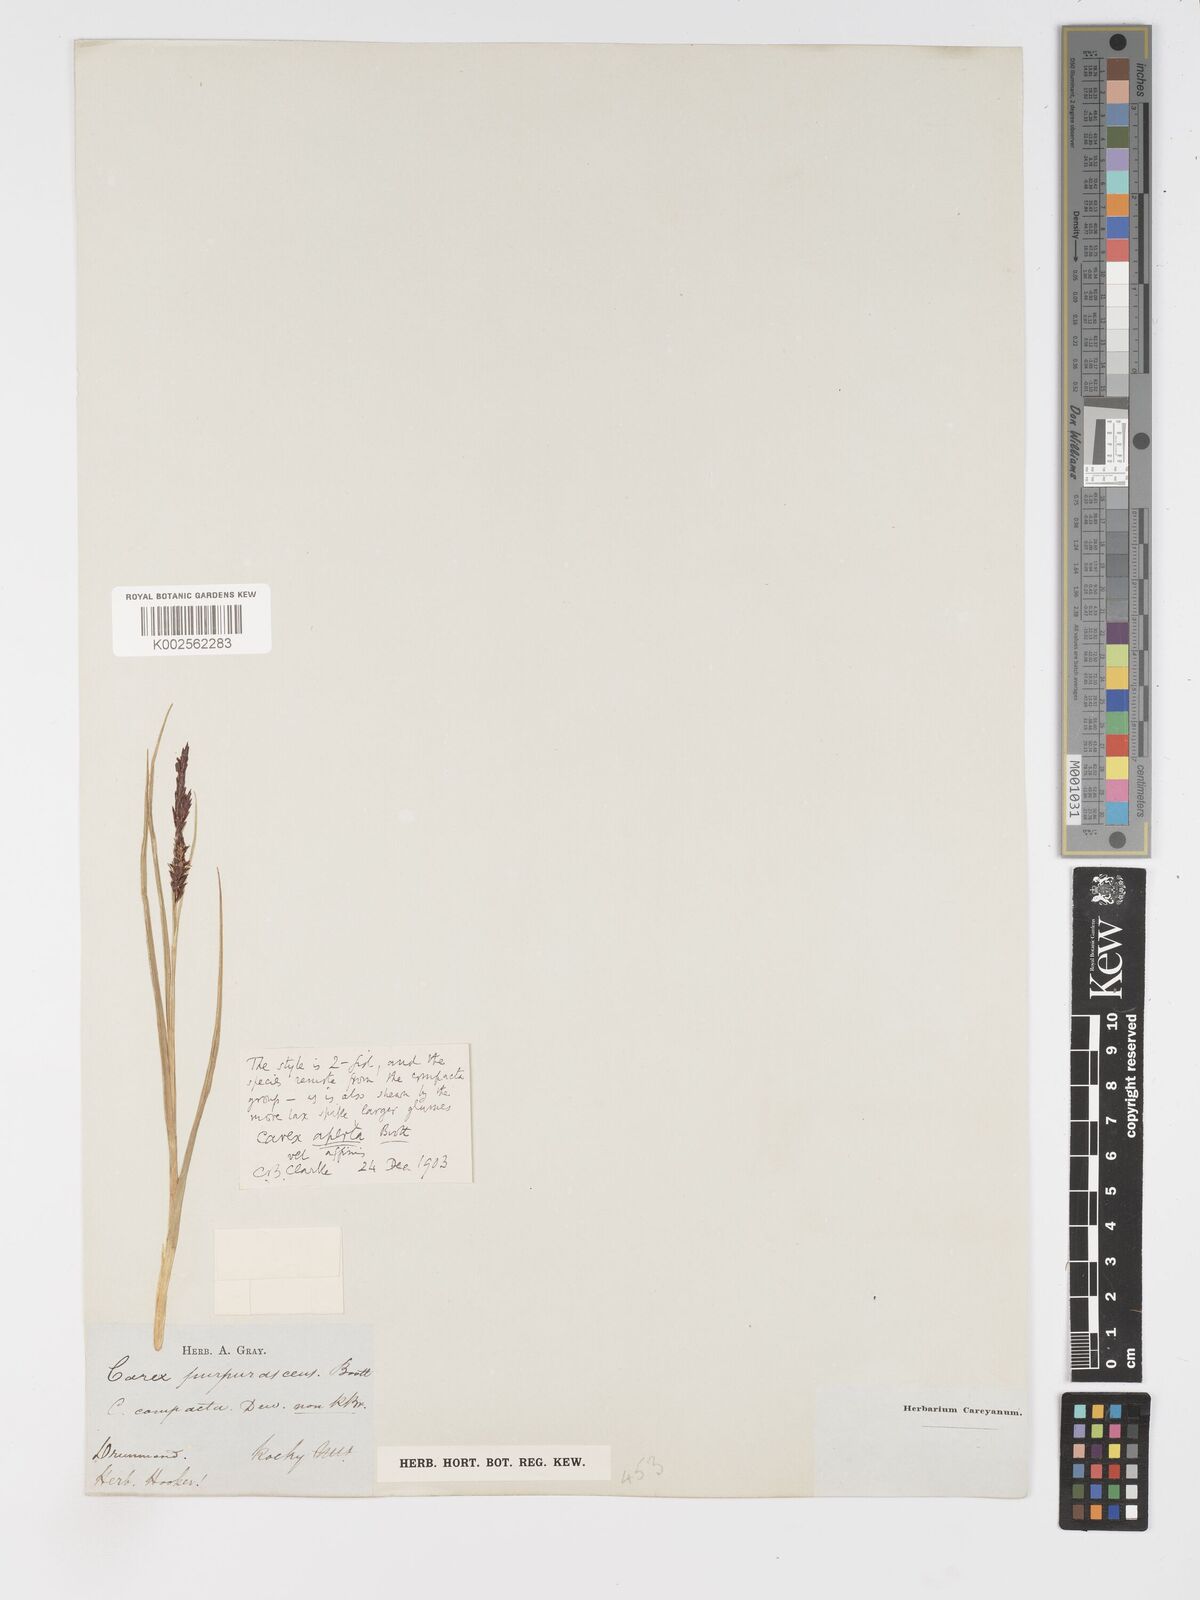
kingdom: Plantae
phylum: Tracheophyta
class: Liliopsida
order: Poales
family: Cyperaceae
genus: Carex
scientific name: Carex aperta
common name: Columbia sedge
